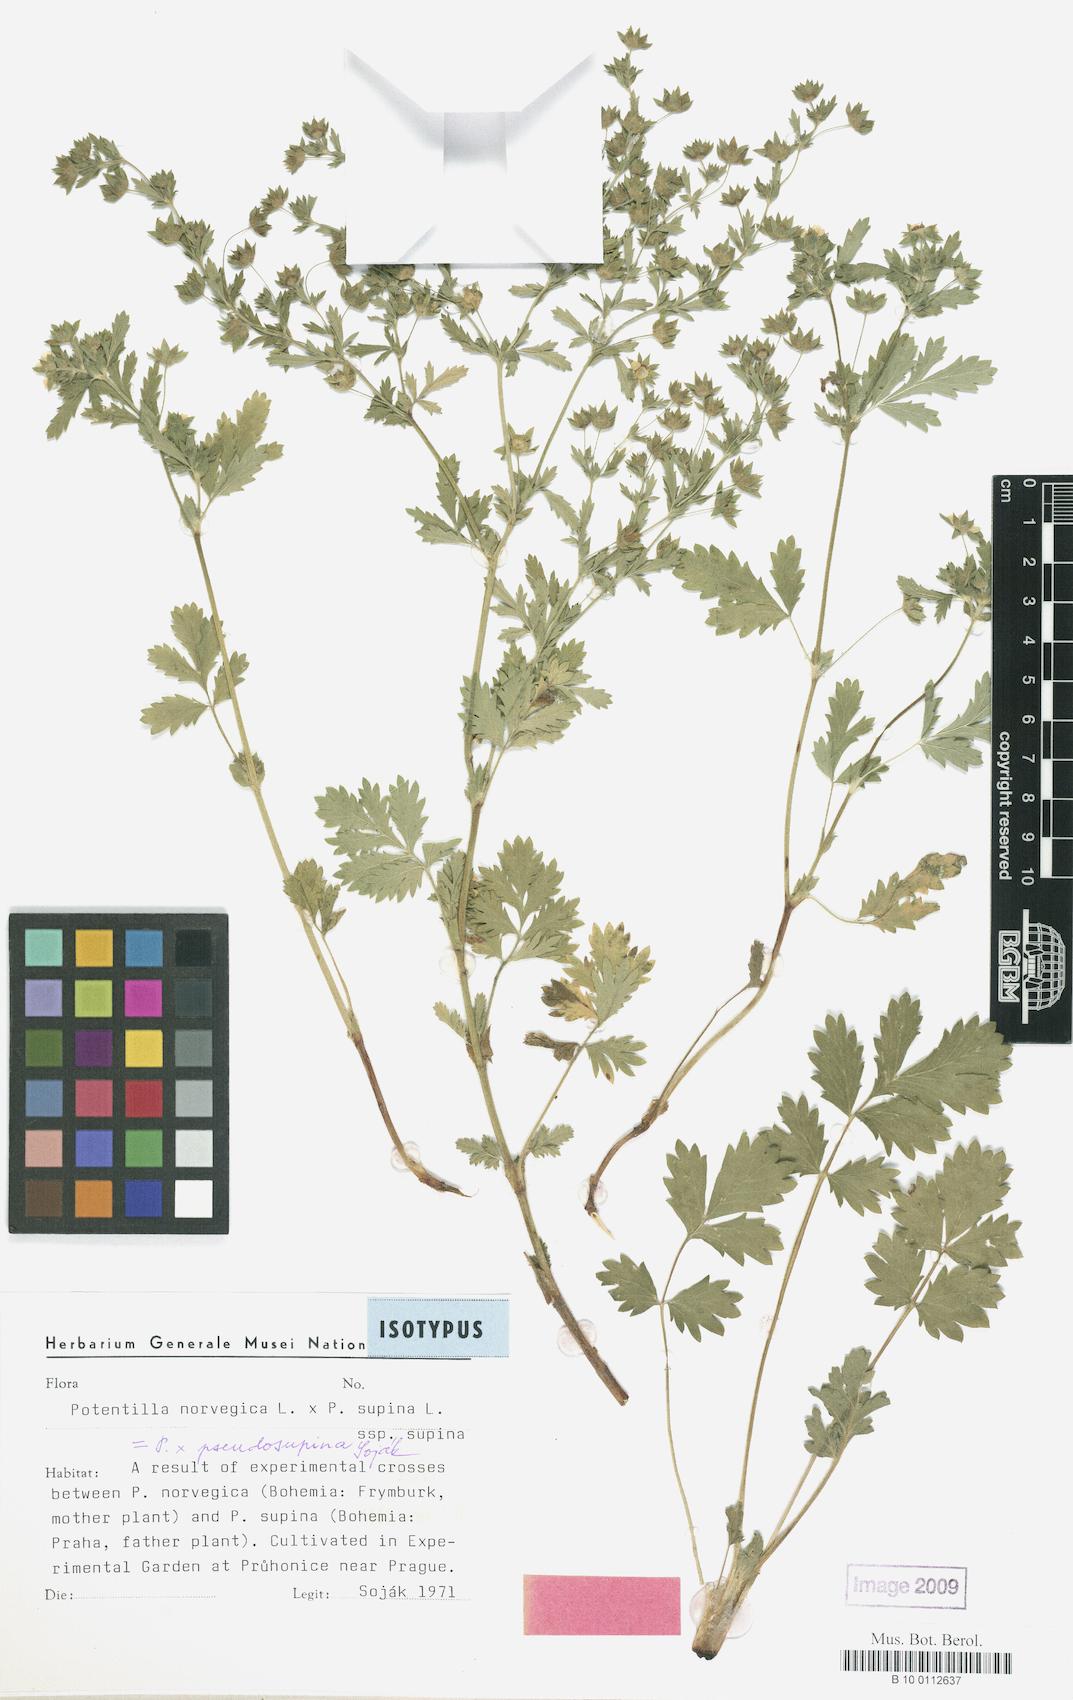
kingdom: Plantae
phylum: Tracheophyta
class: Magnoliopsida
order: Rosales
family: Rosaceae
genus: Potentilla
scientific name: Potentilla
